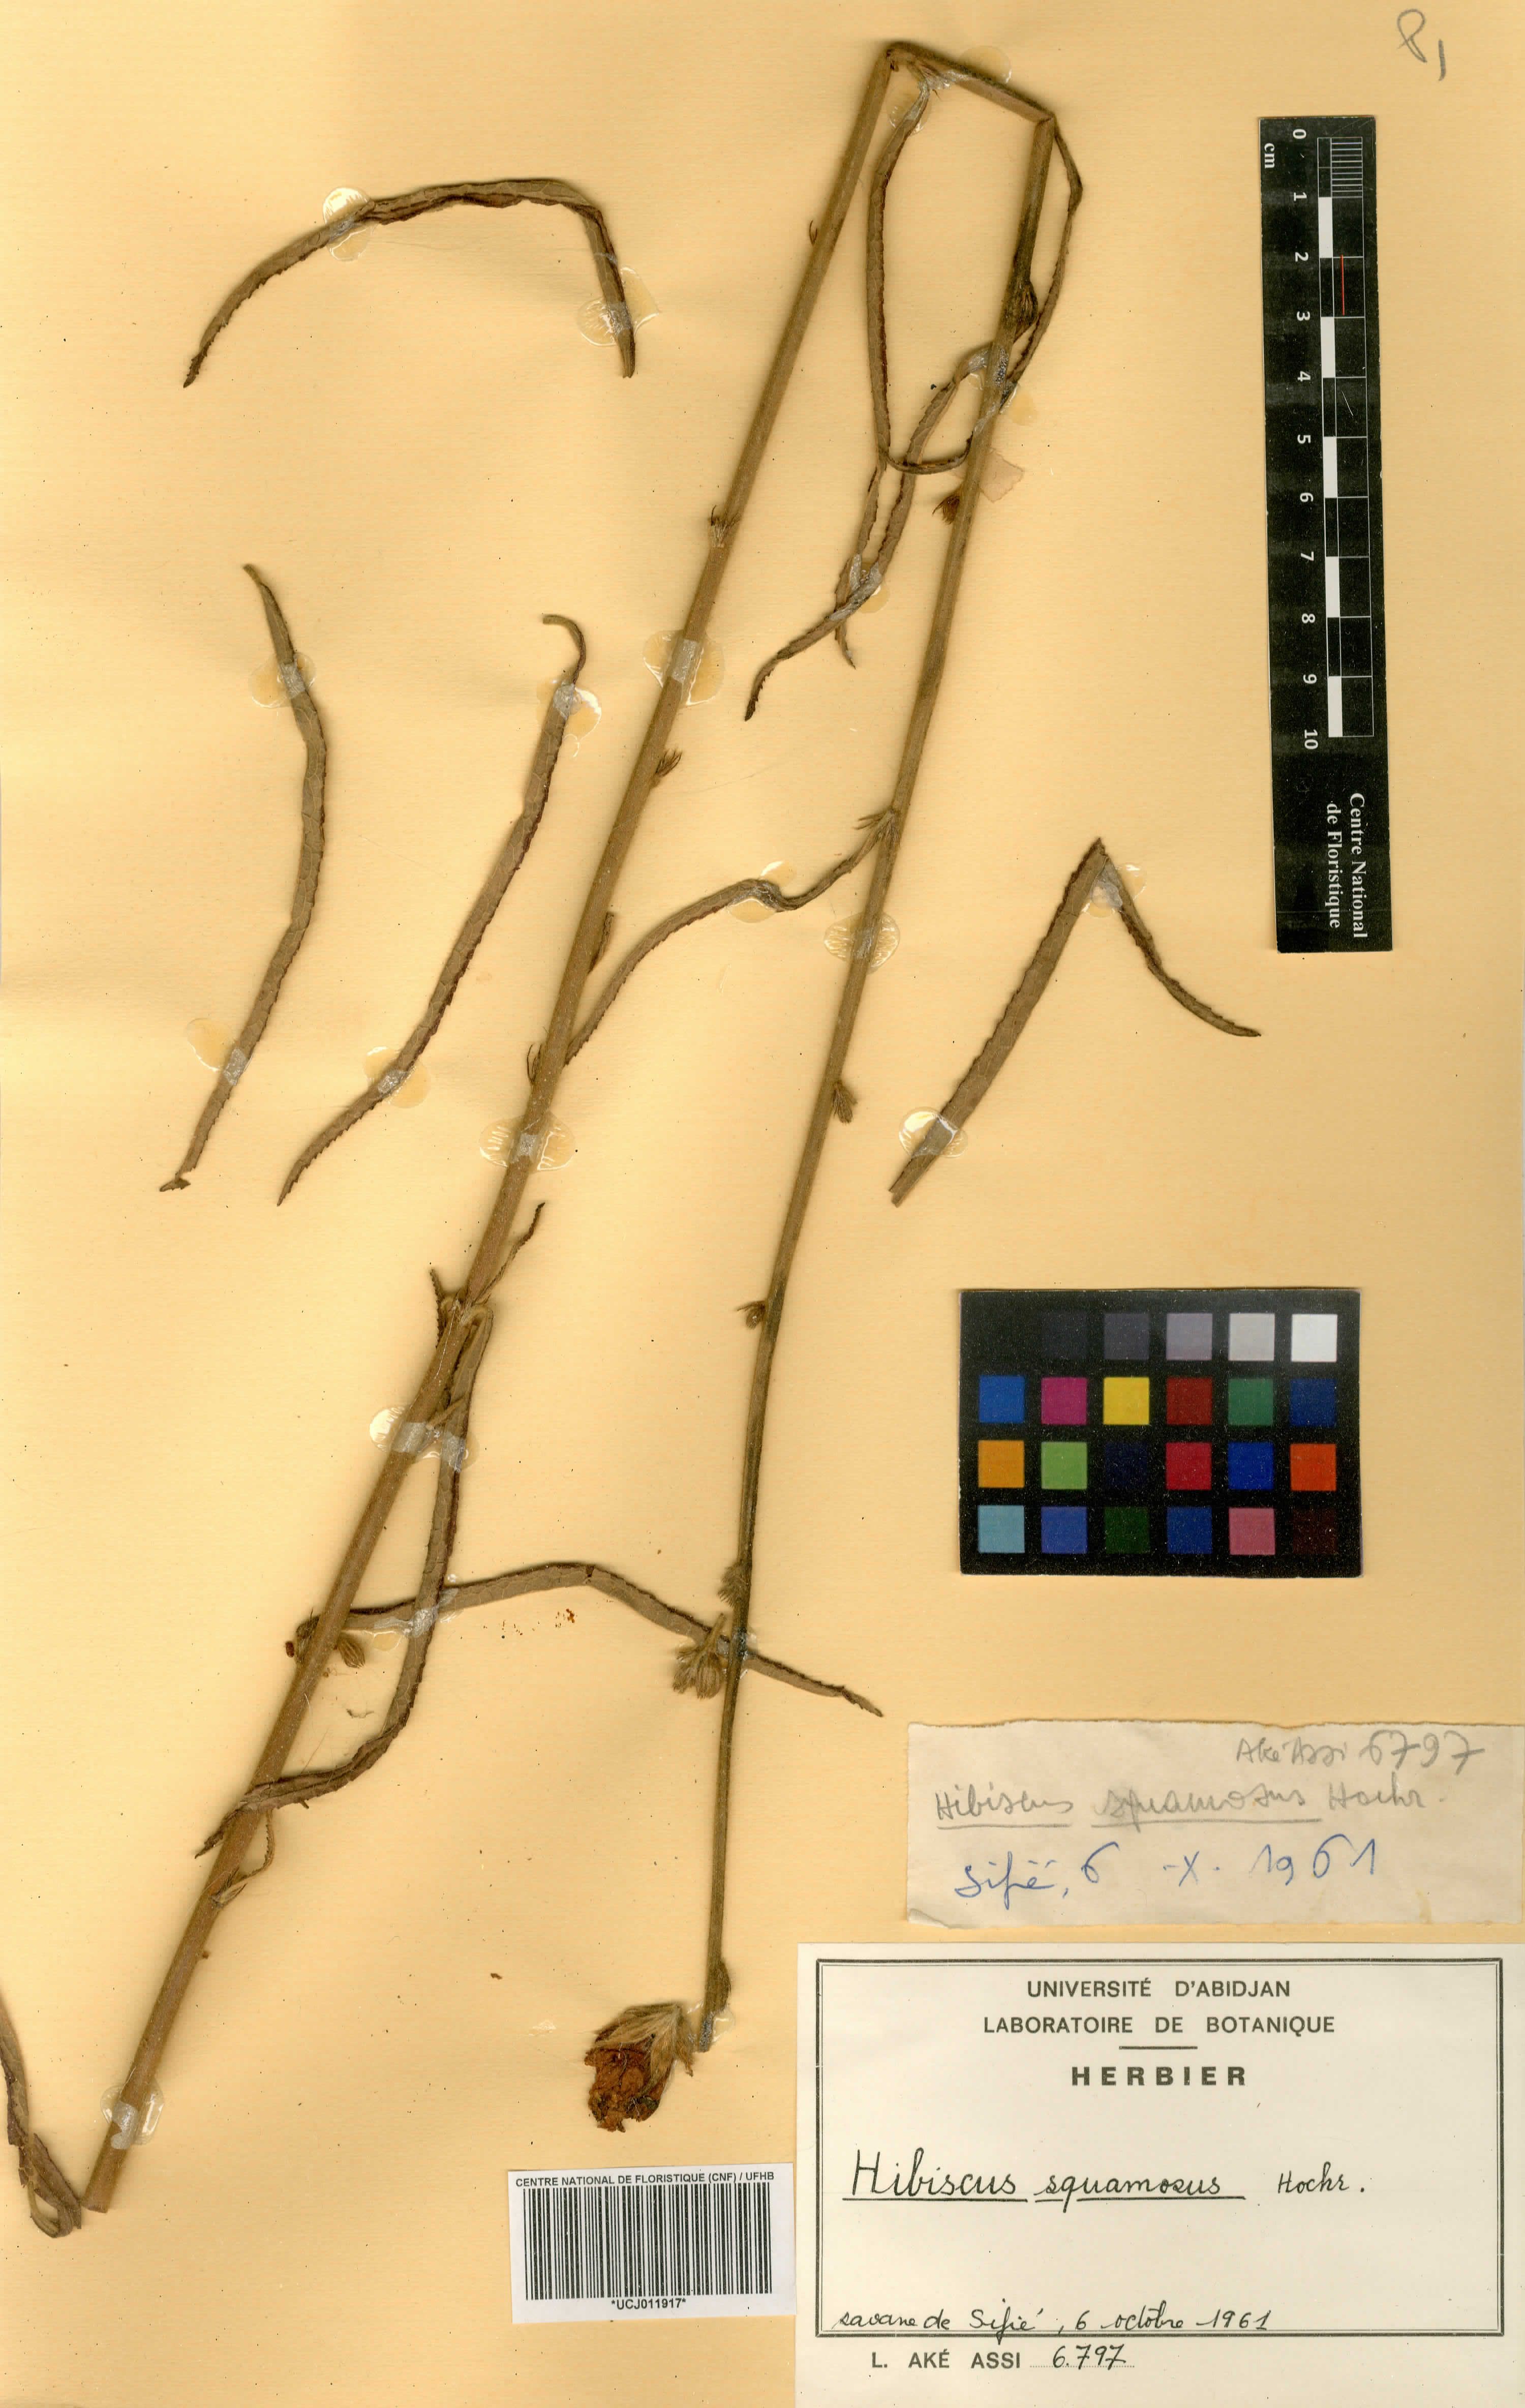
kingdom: Plantae
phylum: Tracheophyta
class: Magnoliopsida
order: Malvales
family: Malvaceae
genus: Hibiscus
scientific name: Hibiscus squamosus
